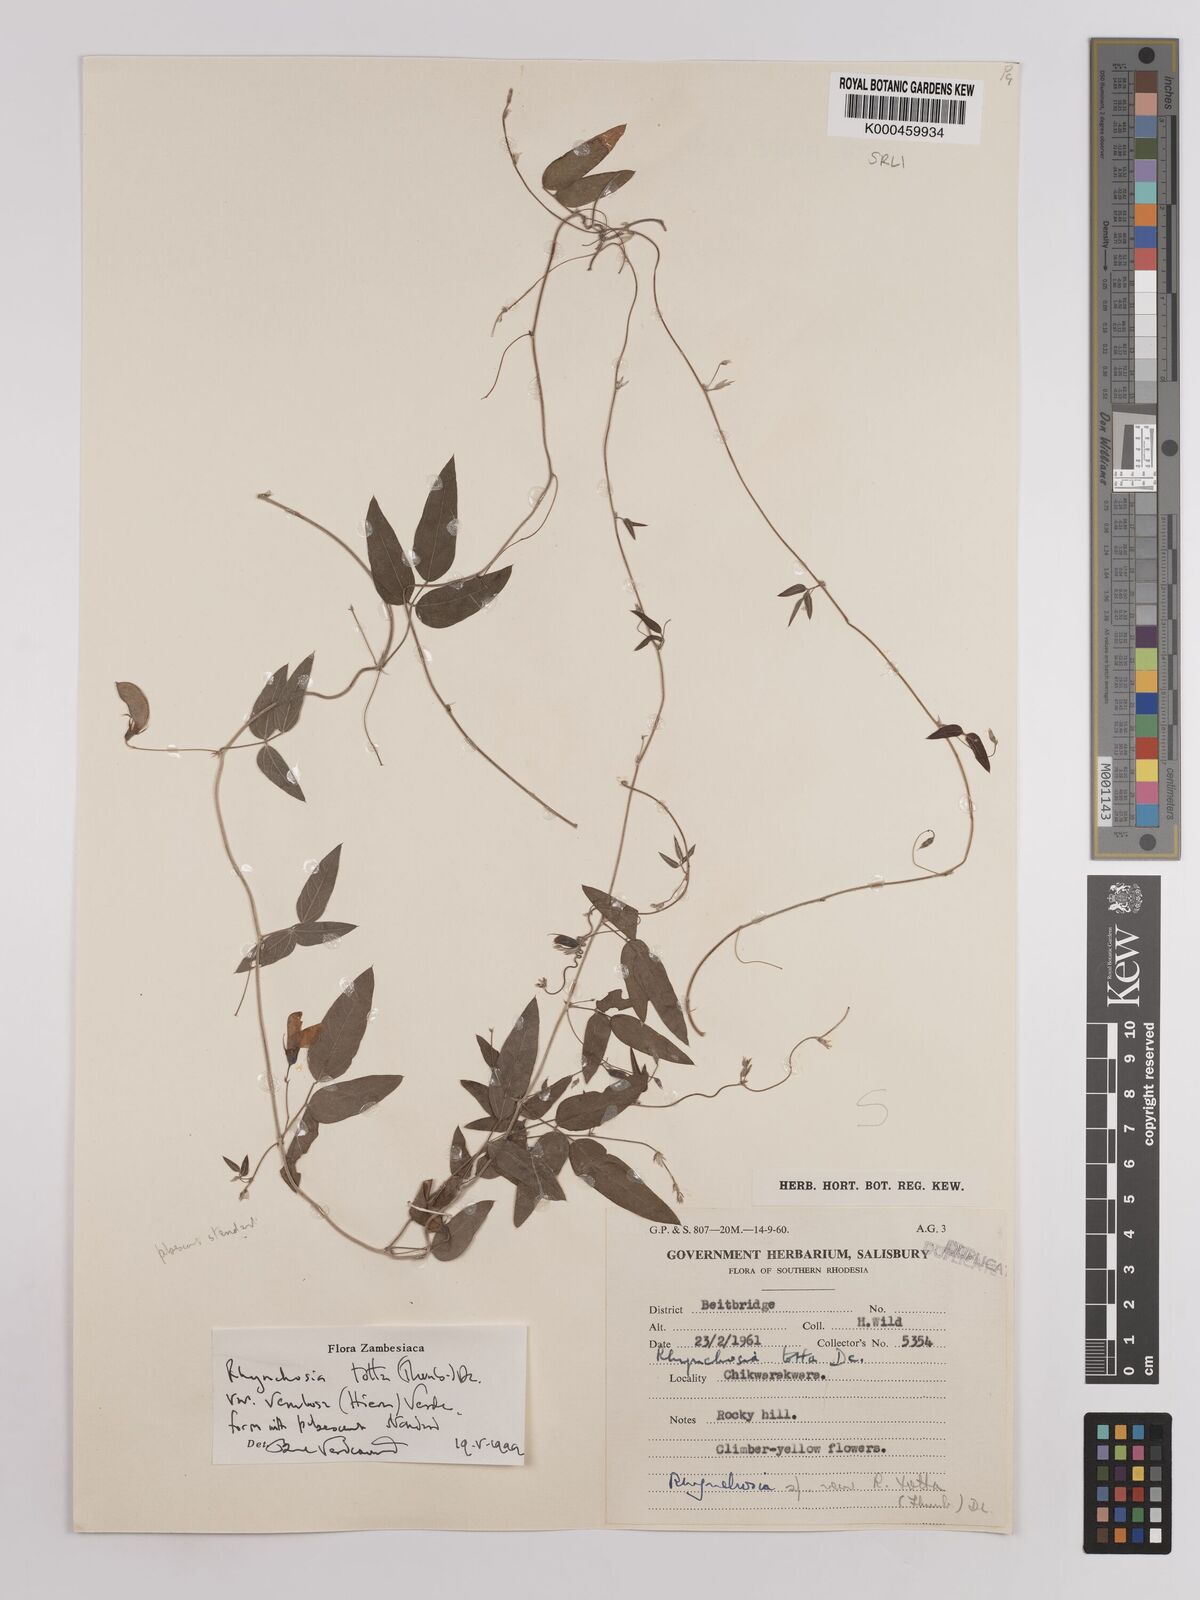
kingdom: Plantae
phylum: Tracheophyta
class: Magnoliopsida
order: Fabales
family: Fabaceae
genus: Rhynchosia
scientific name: Rhynchosia totta
